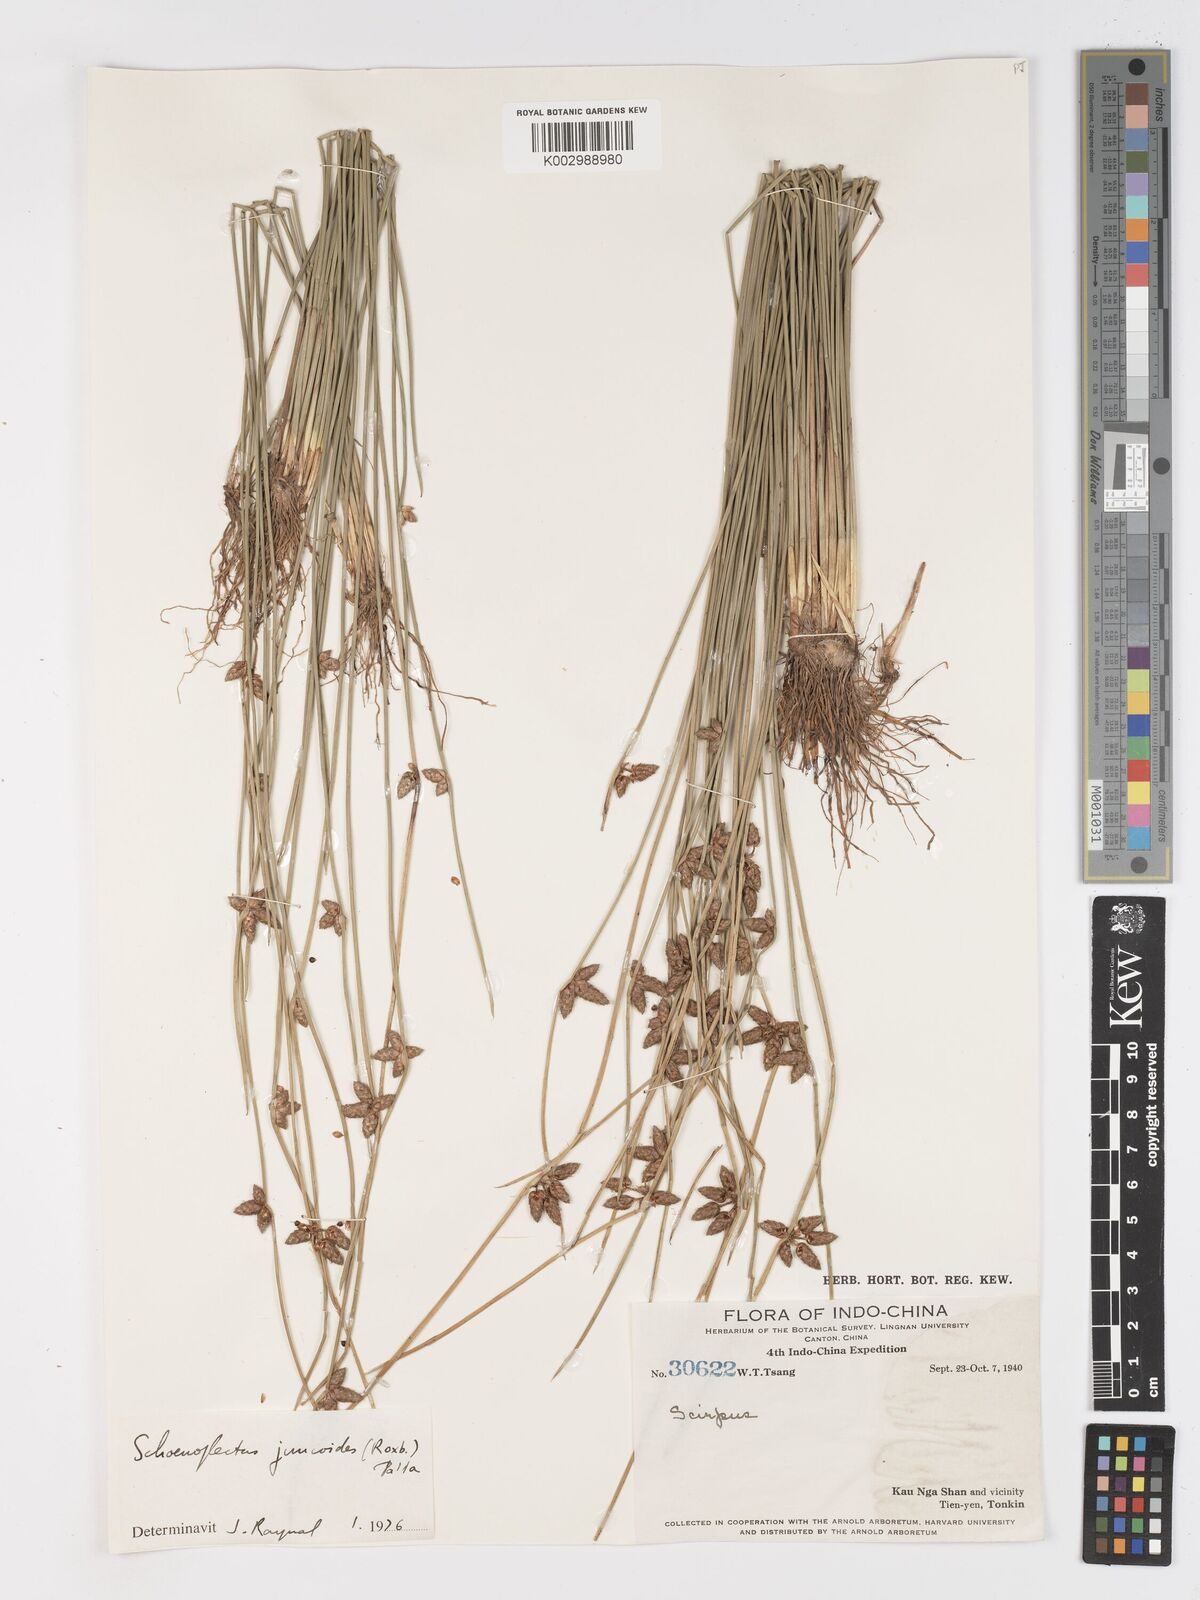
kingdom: Plantae
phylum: Tracheophyta
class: Liliopsida
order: Poales
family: Cyperaceae
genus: Schoenoplectiella
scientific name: Schoenoplectiella juncoides
